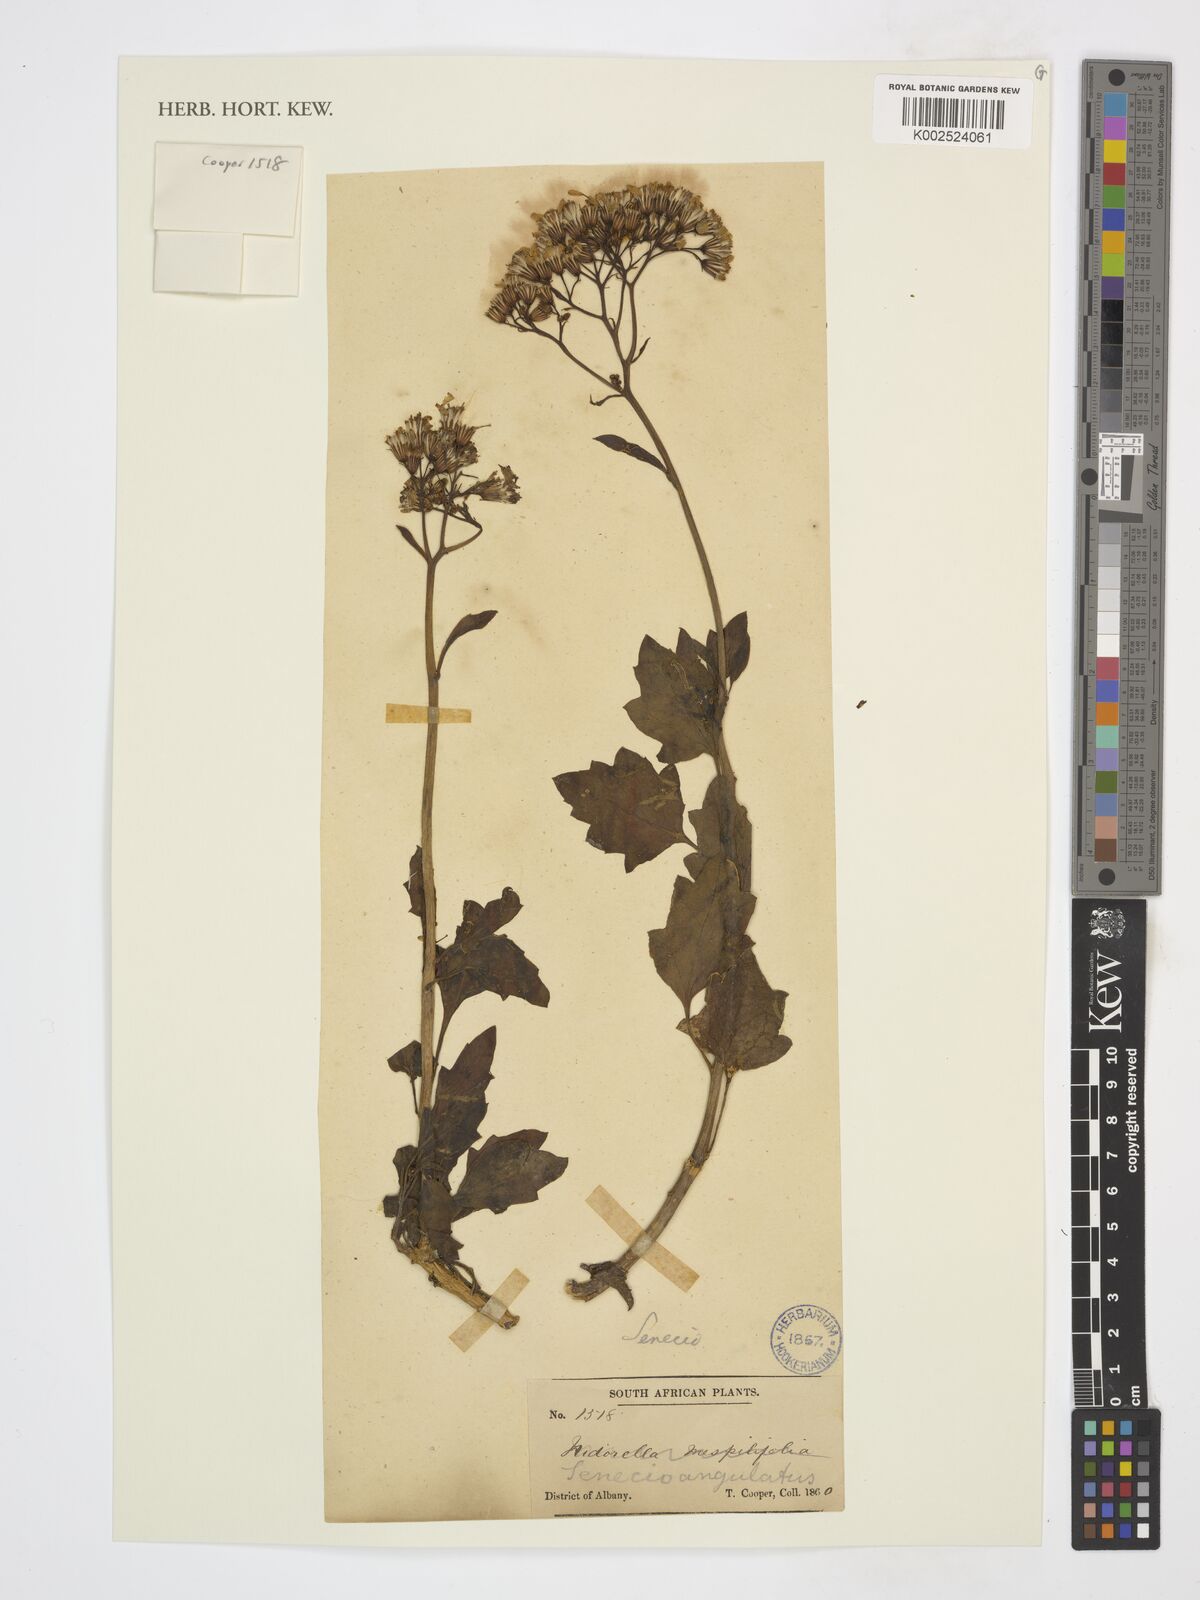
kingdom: Plantae
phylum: Tracheophyta
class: Magnoliopsida
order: Asterales
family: Asteraceae
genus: Senecio
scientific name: Senecio angulatus
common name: Climbing groundsel
